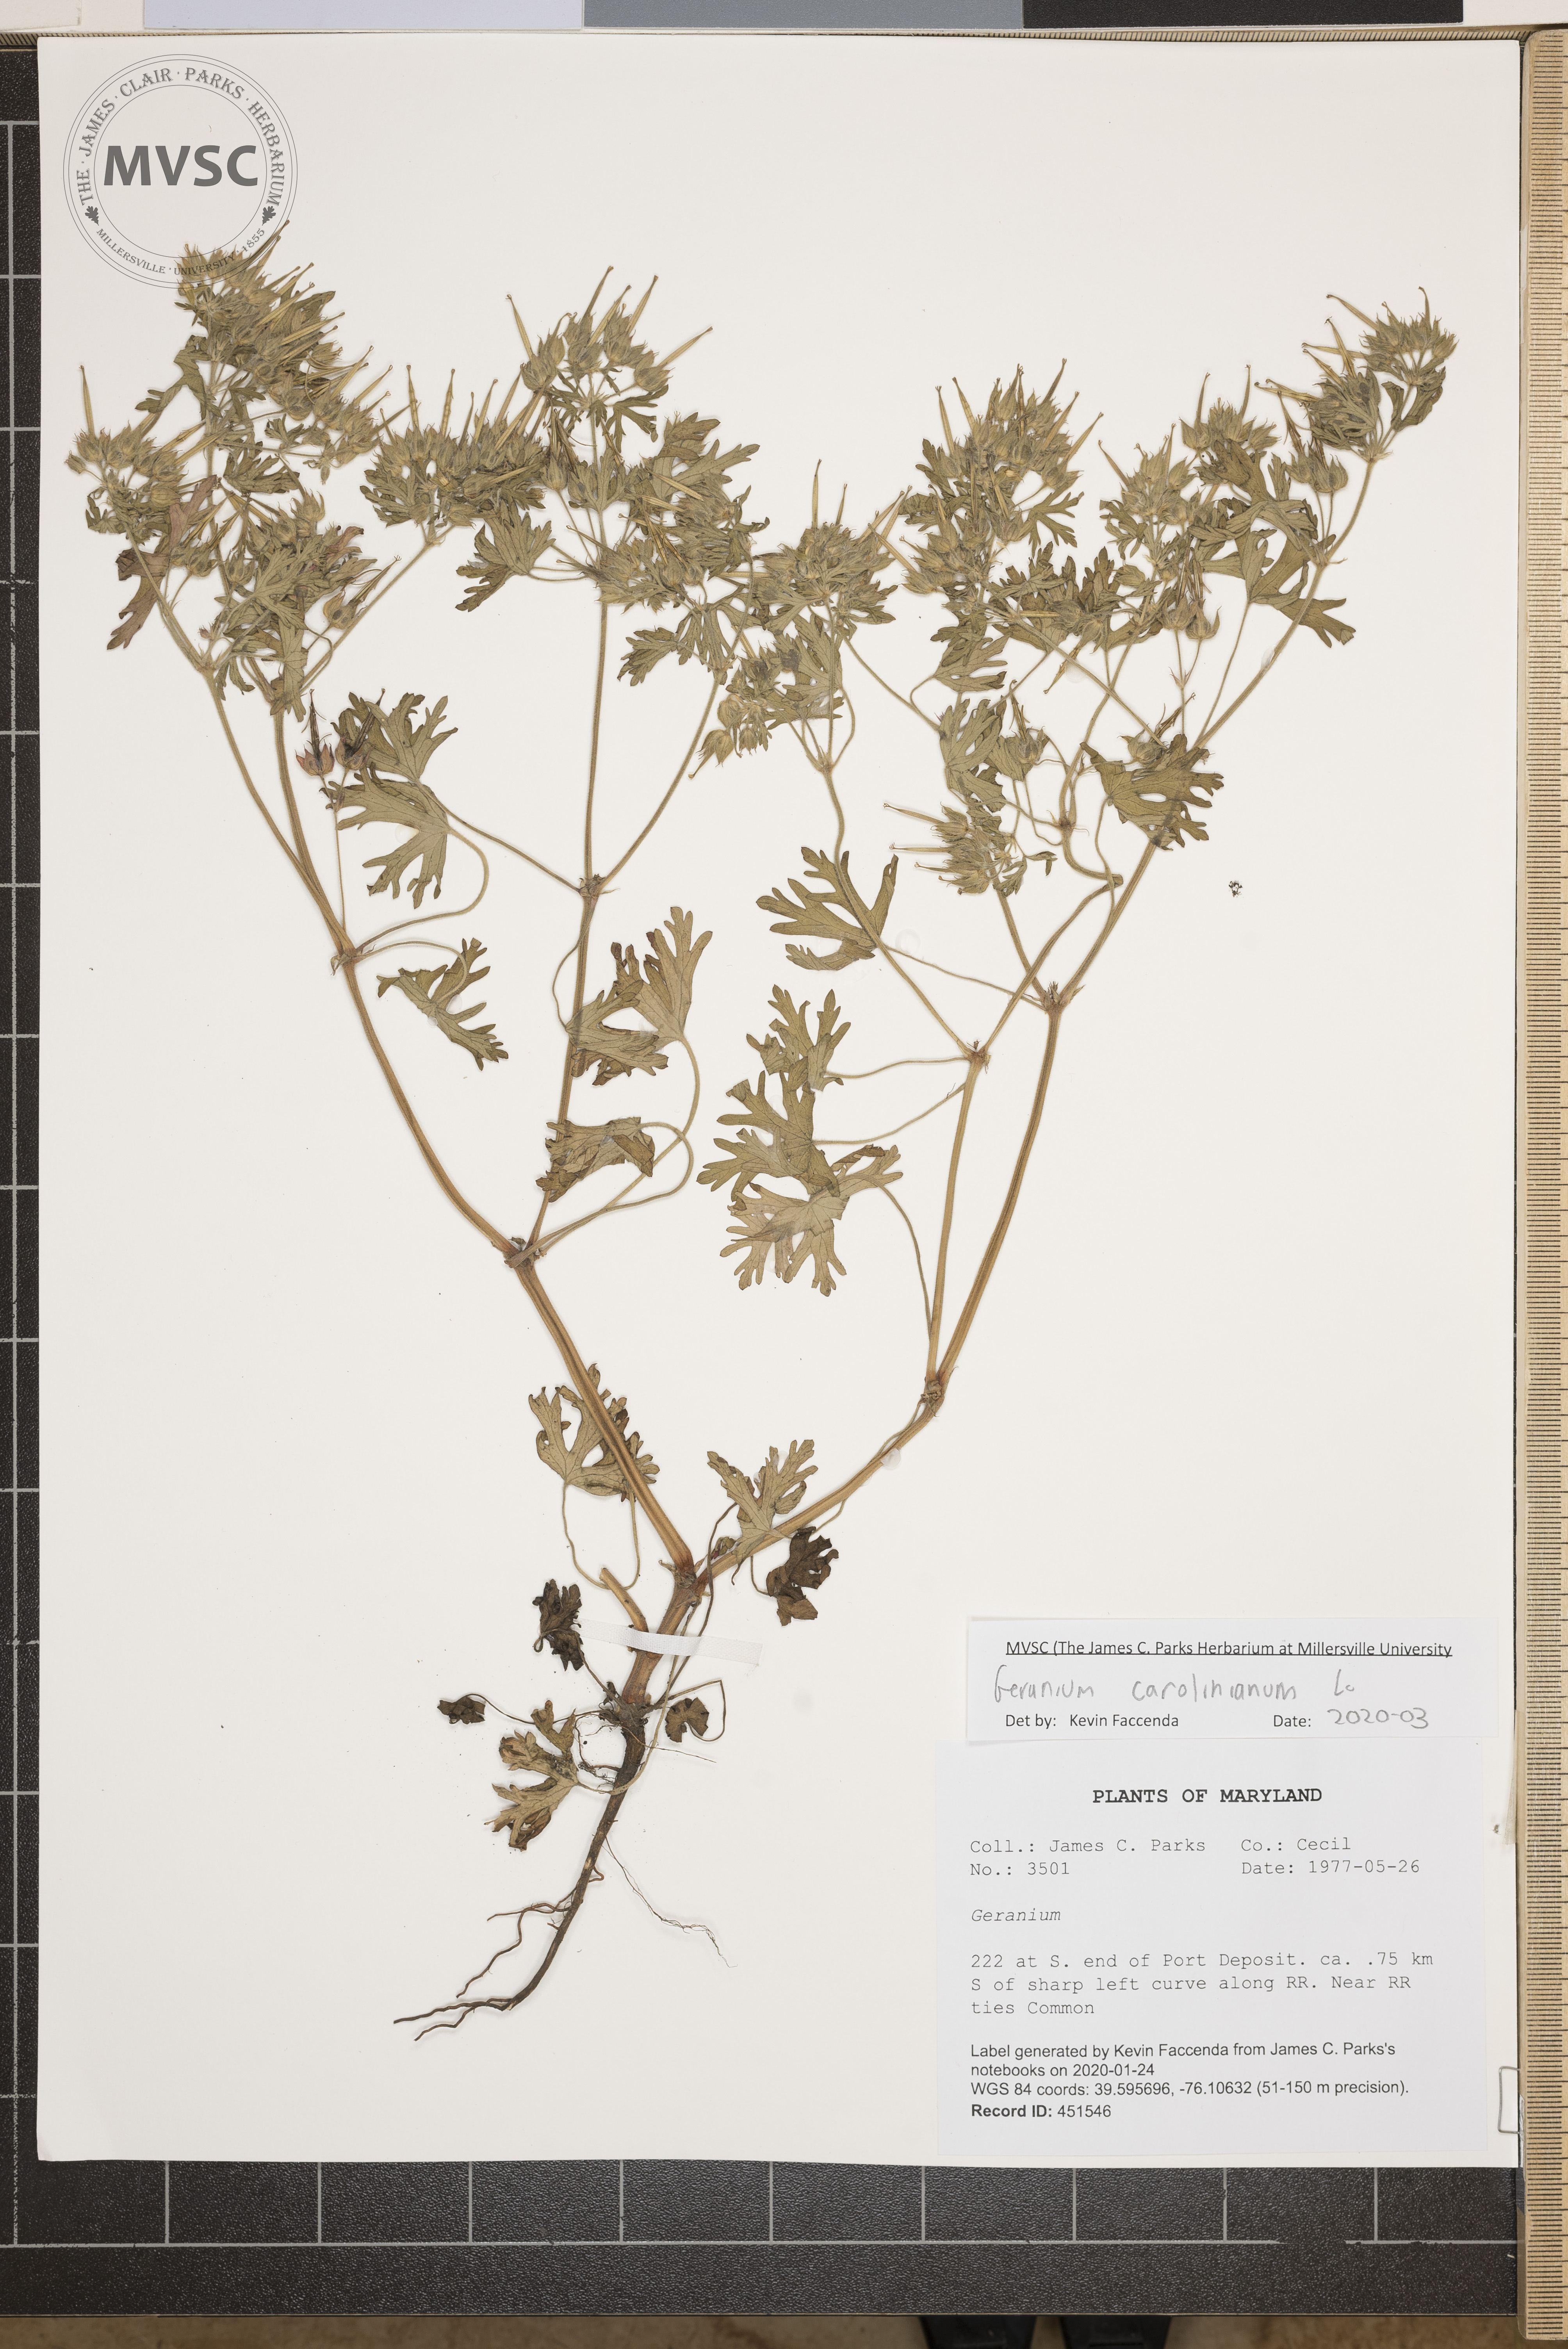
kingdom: Plantae
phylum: Tracheophyta
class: Magnoliopsida
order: Geraniales
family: Geraniaceae
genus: Geranium
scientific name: Geranium carolinianum
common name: Carolina crane's-bill
